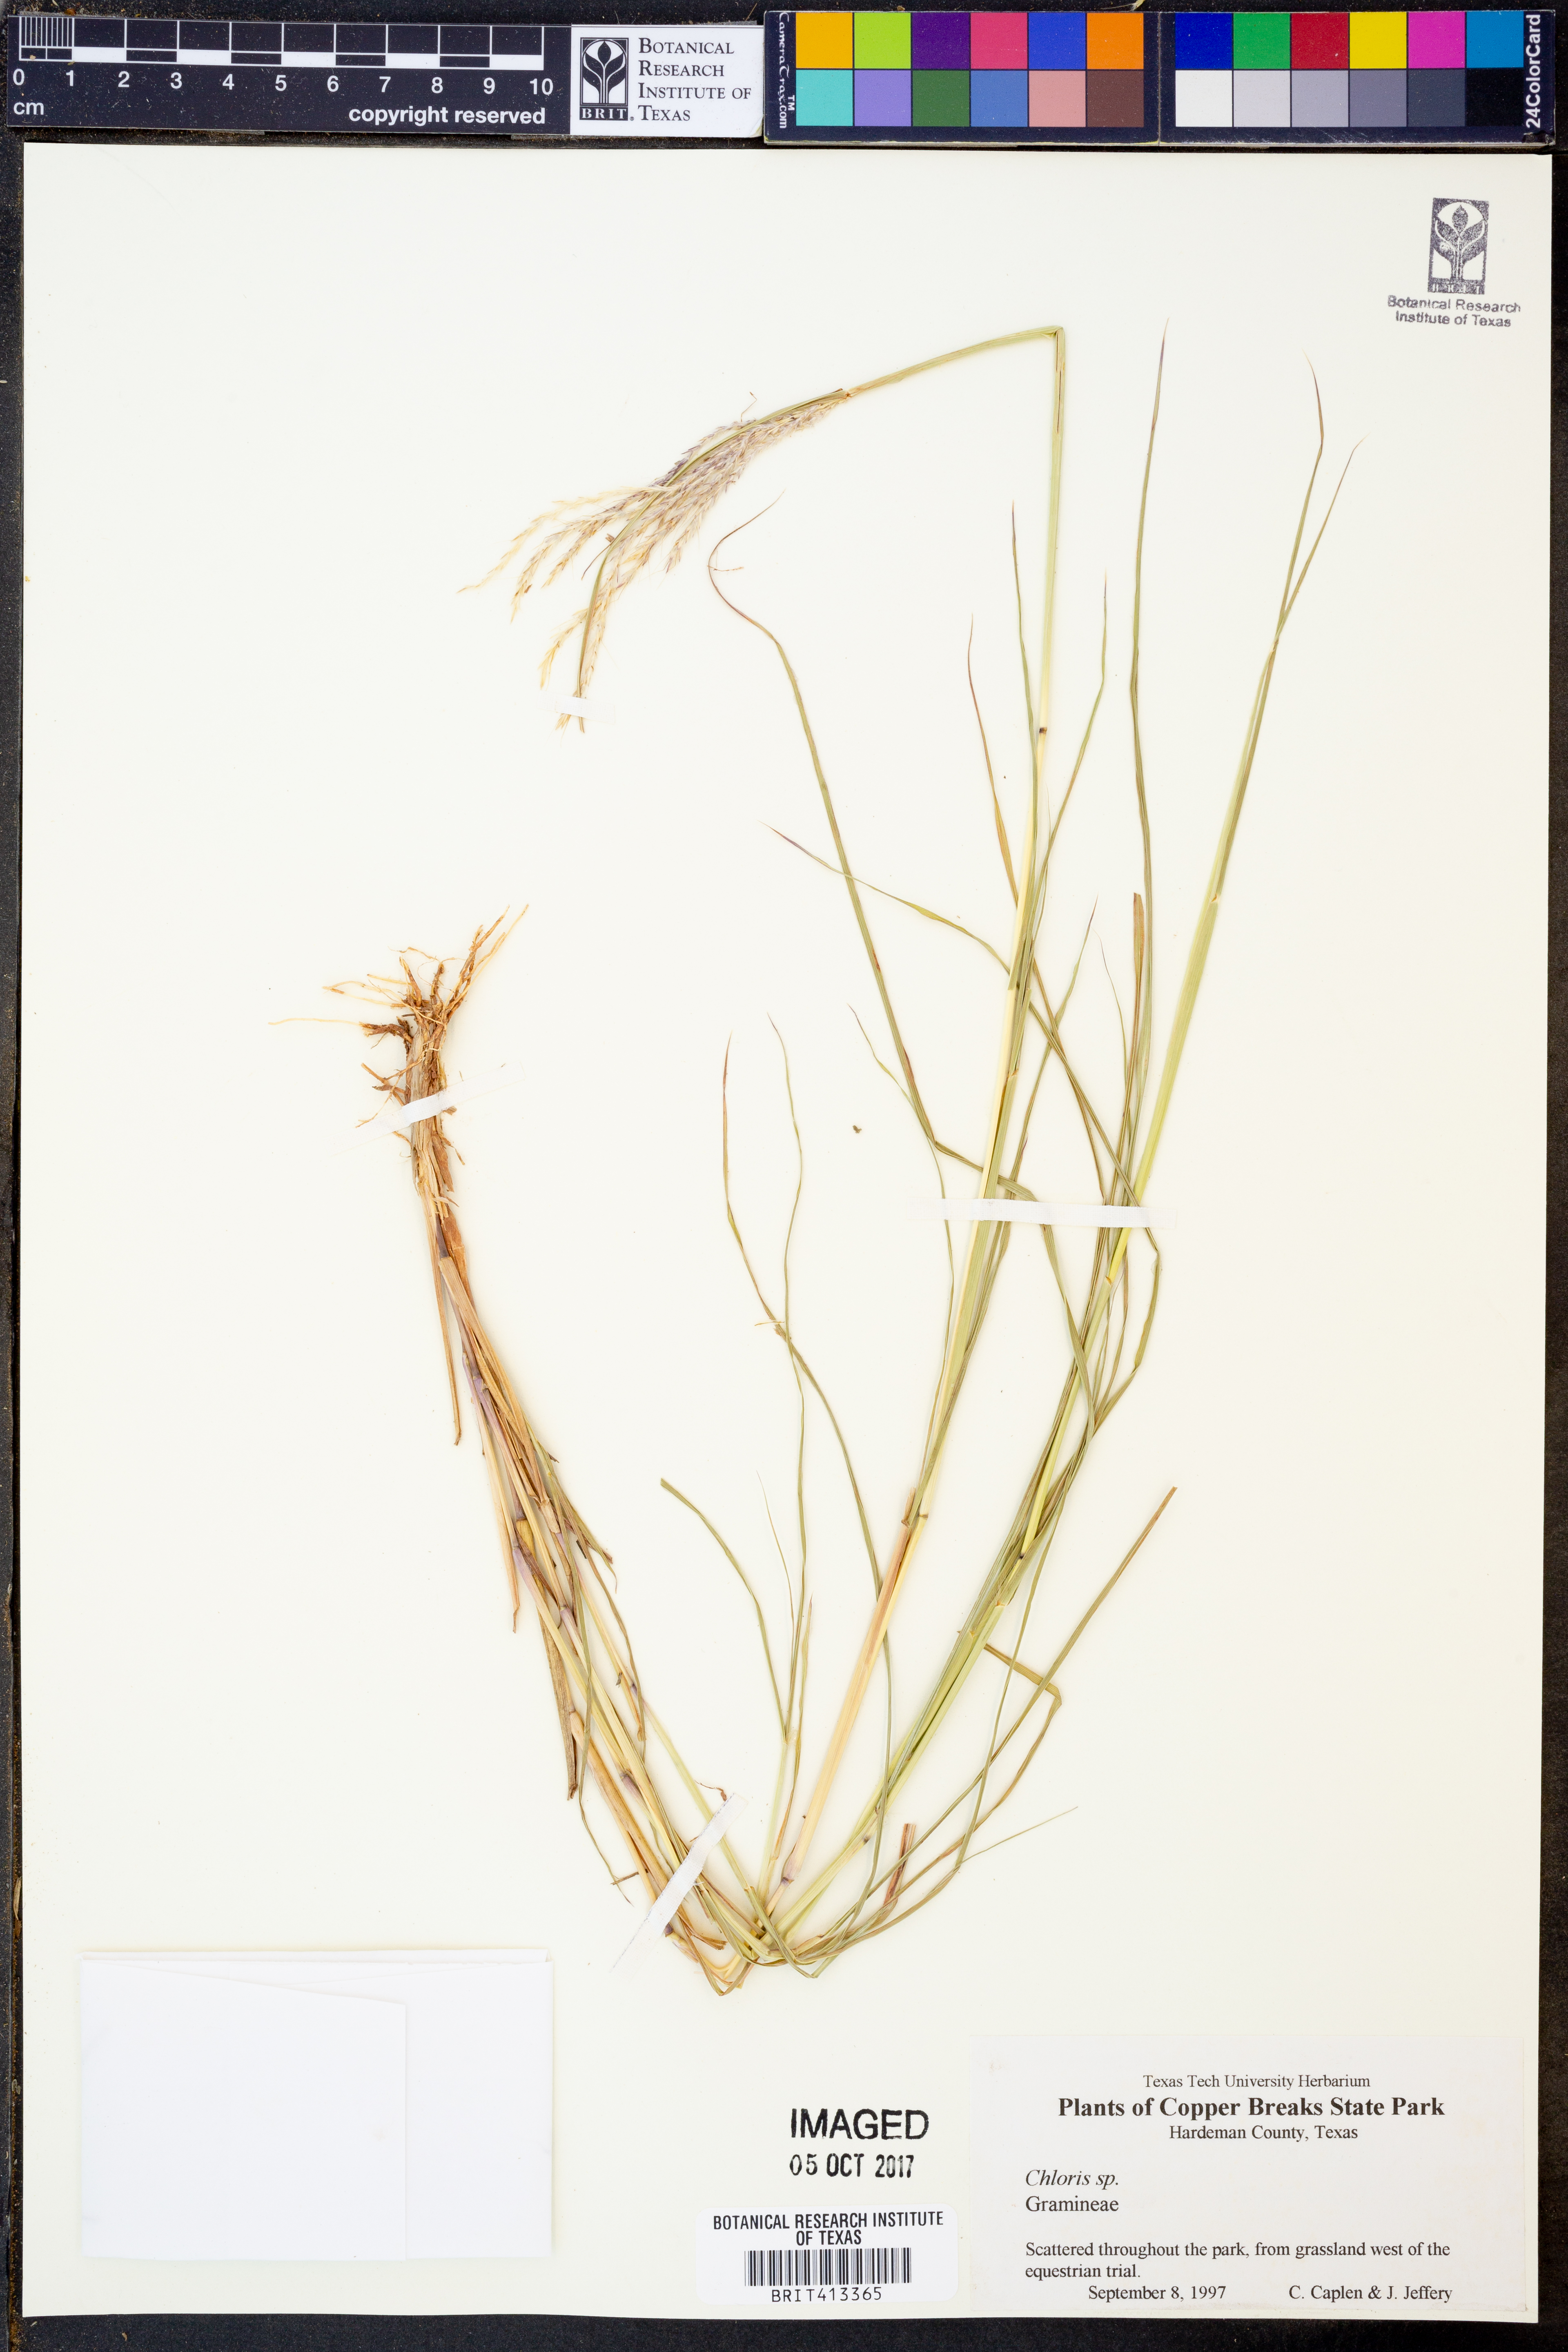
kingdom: Plantae
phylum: Tracheophyta
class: Liliopsida
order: Poales
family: Poaceae
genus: Chloris
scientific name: Chloris
